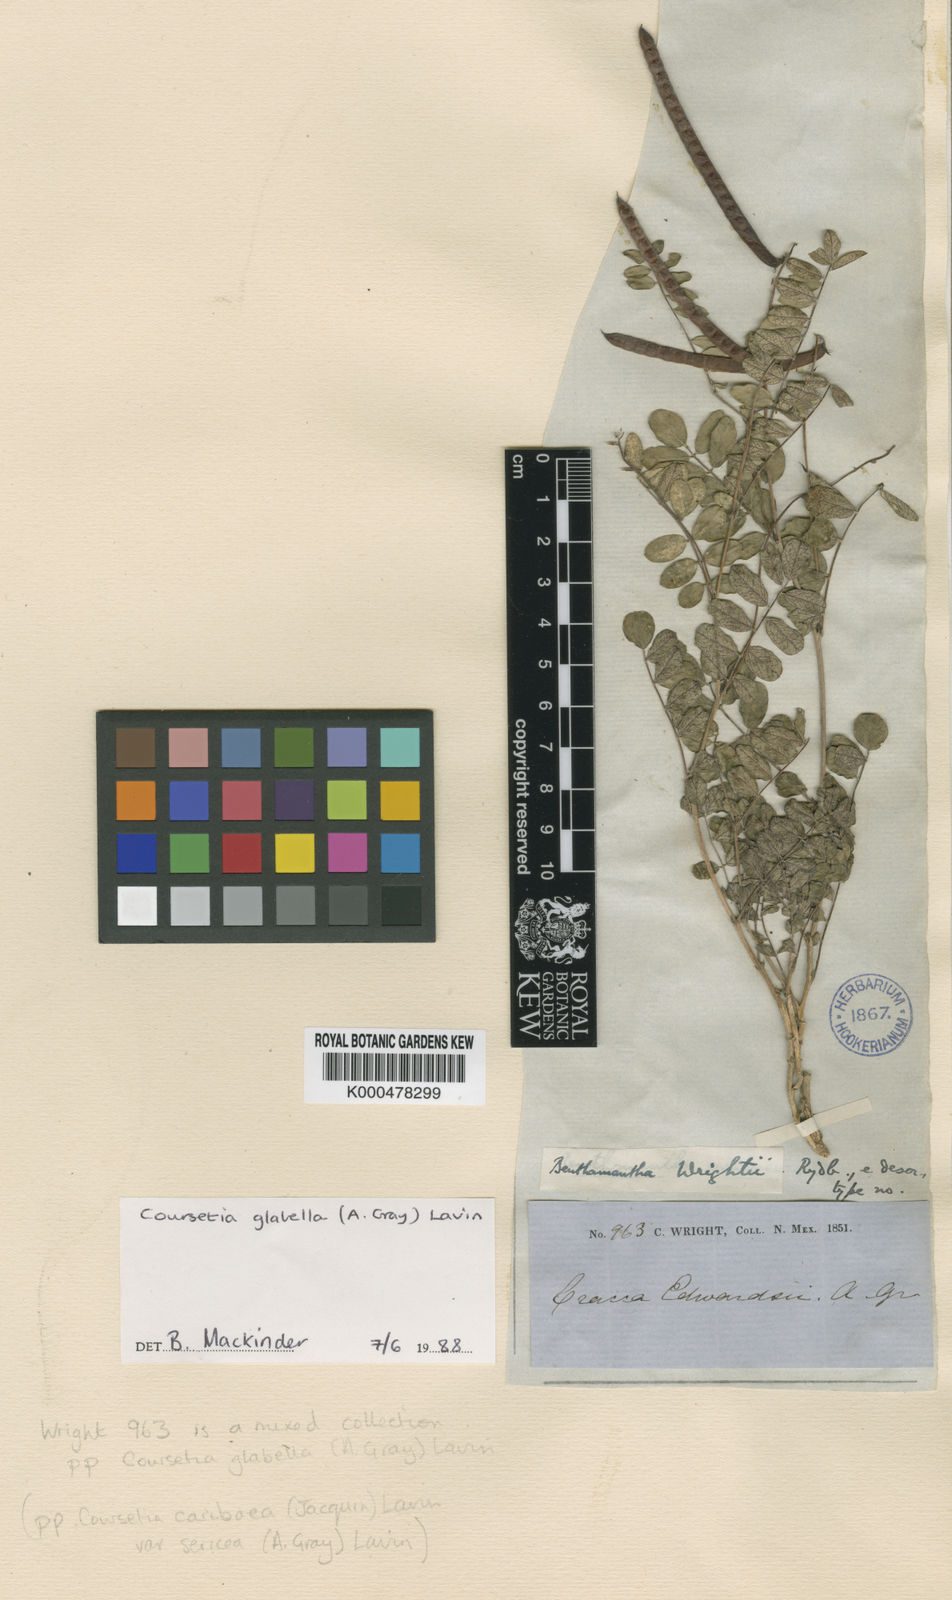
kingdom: Plantae
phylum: Tracheophyta
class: Magnoliopsida
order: Fabales
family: Fabaceae
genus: Coursetia
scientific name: Coursetia glabella
